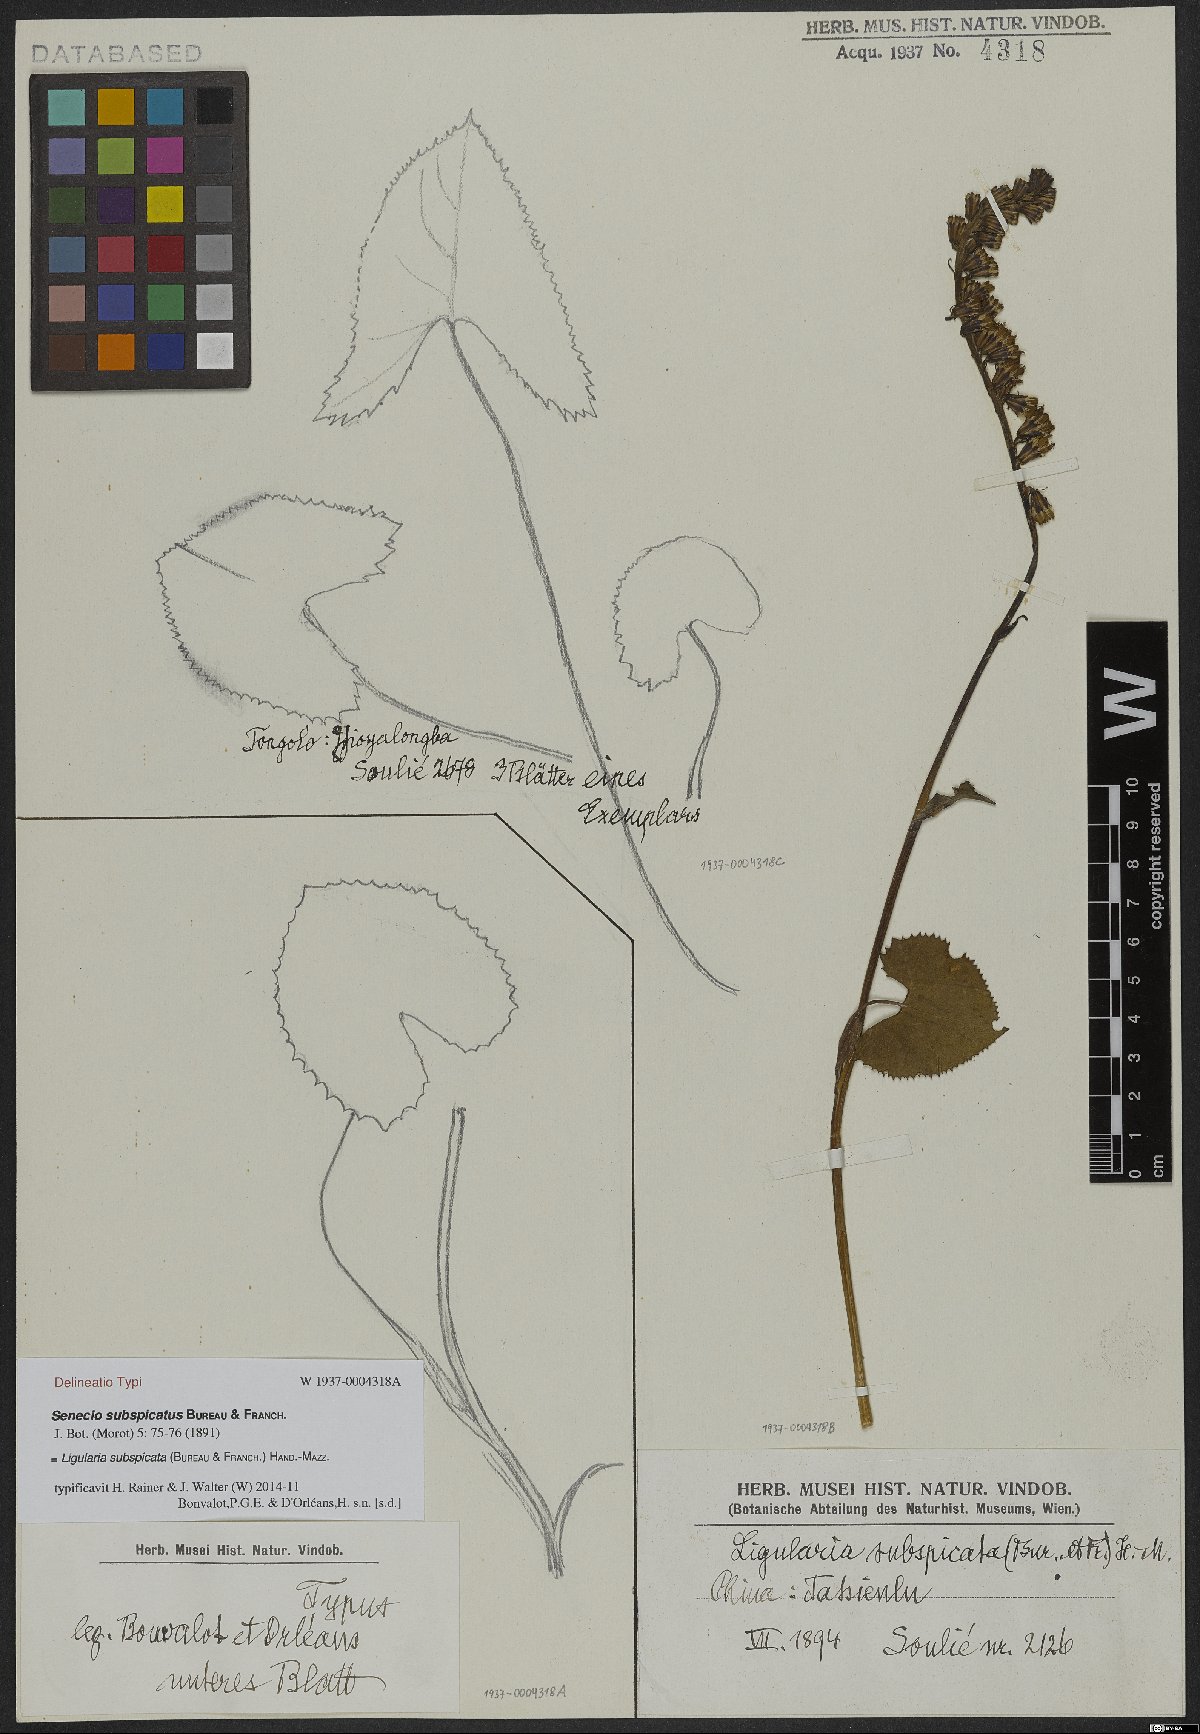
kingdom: Plantae
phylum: Tracheophyta
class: Magnoliopsida
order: Asterales
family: Asteraceae
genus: Ligularia
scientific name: Ligularia subspicata
